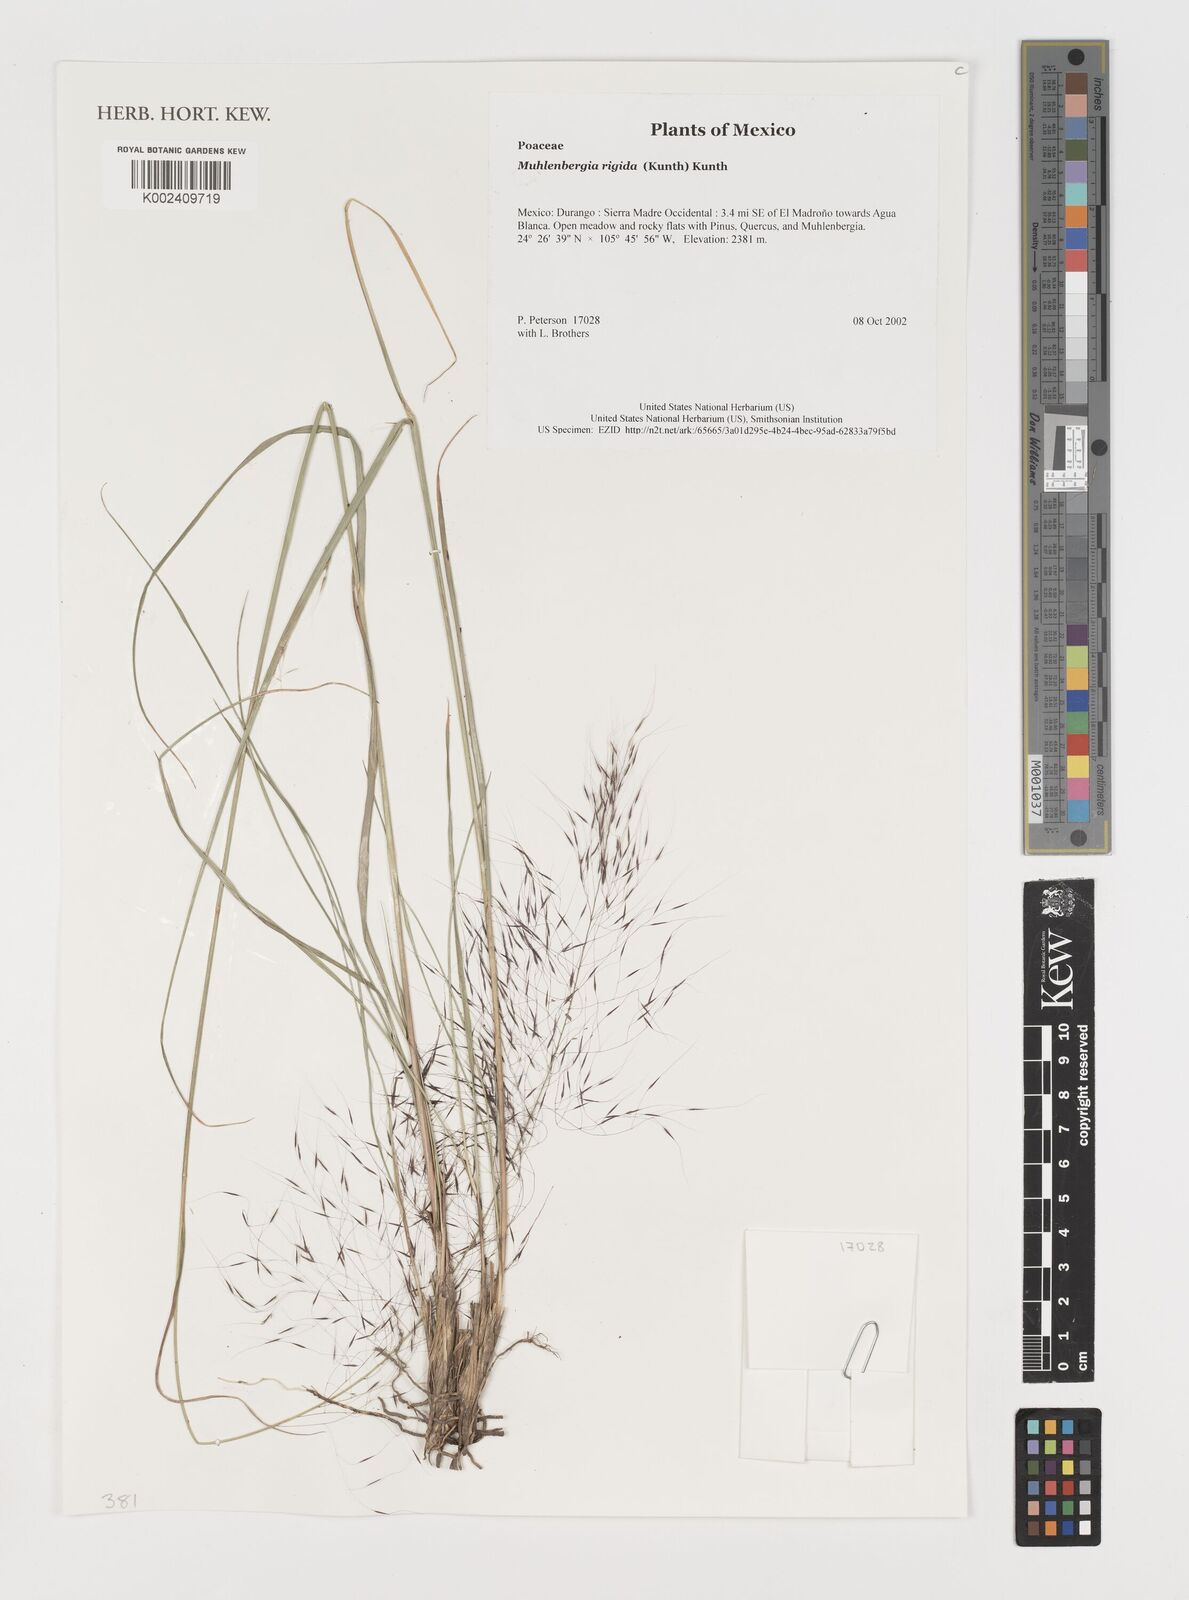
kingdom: Plantae
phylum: Tracheophyta
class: Liliopsida
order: Poales
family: Poaceae
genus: Muhlenbergia
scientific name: Muhlenbergia rigida
